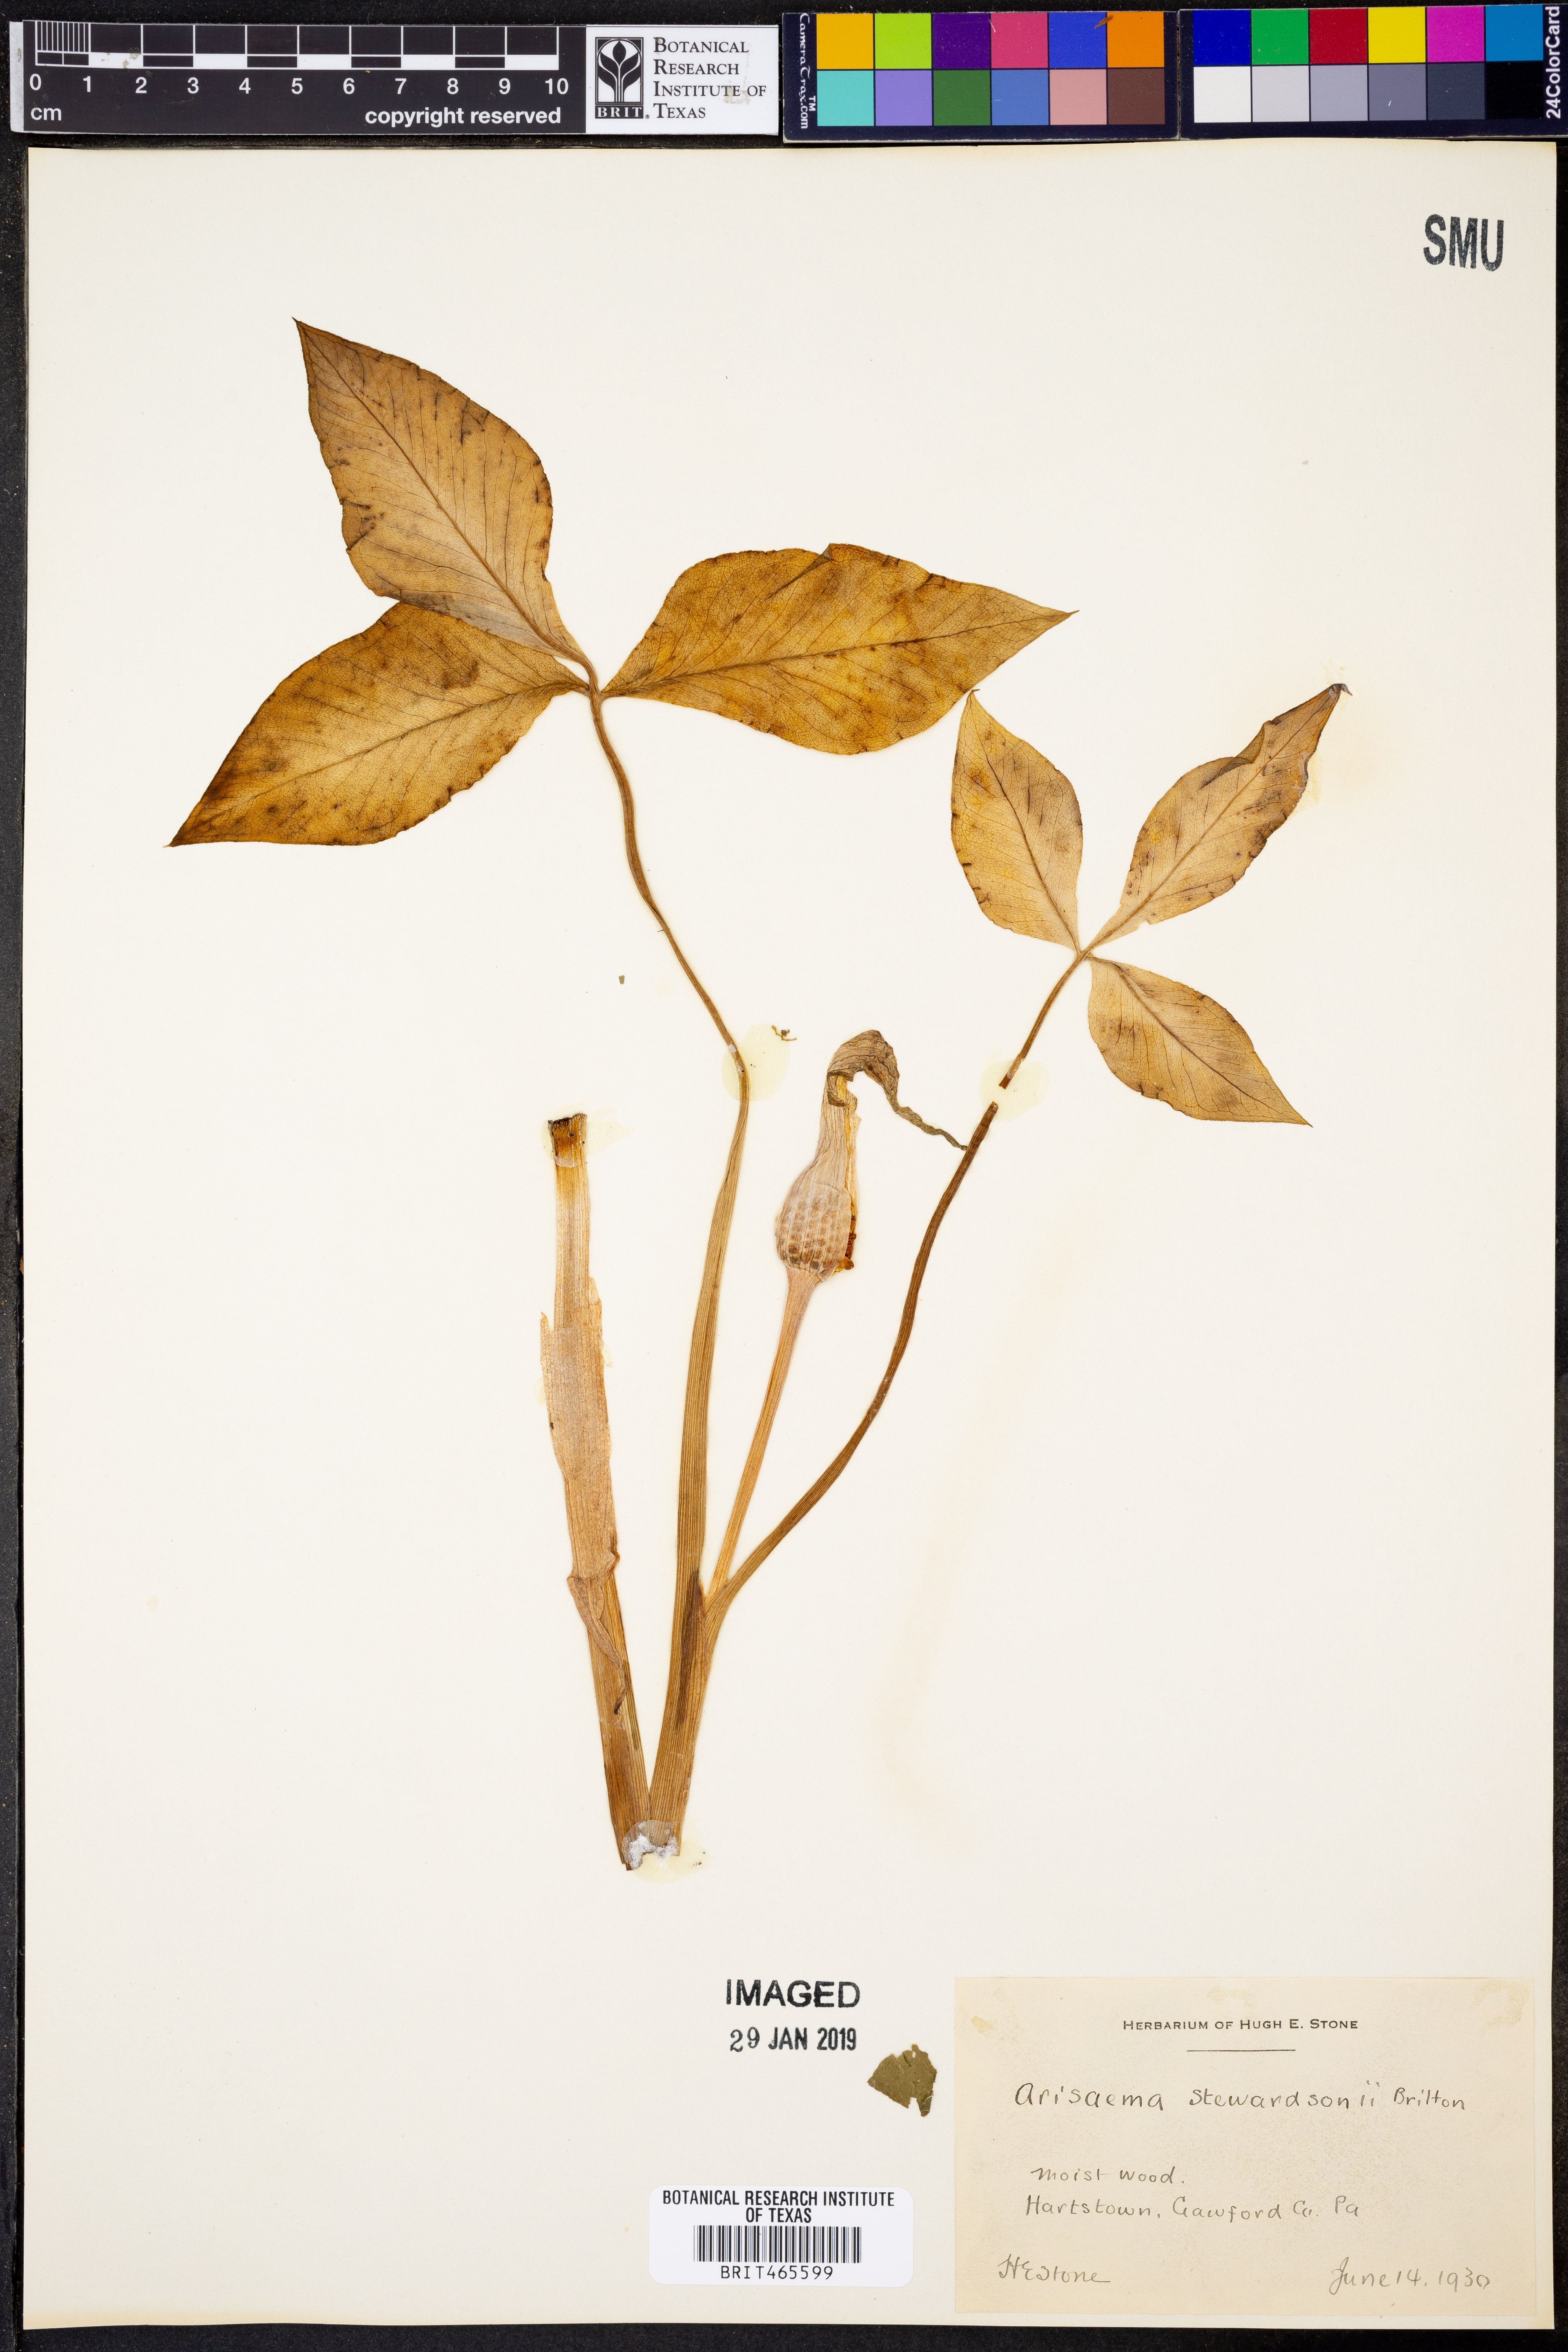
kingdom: Plantae
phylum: Tracheophyta
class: Liliopsida
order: Alismatales
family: Araceae
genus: Arisaema
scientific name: Arisaema stewardsonii
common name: Swamp jack-in-the-pulpit
